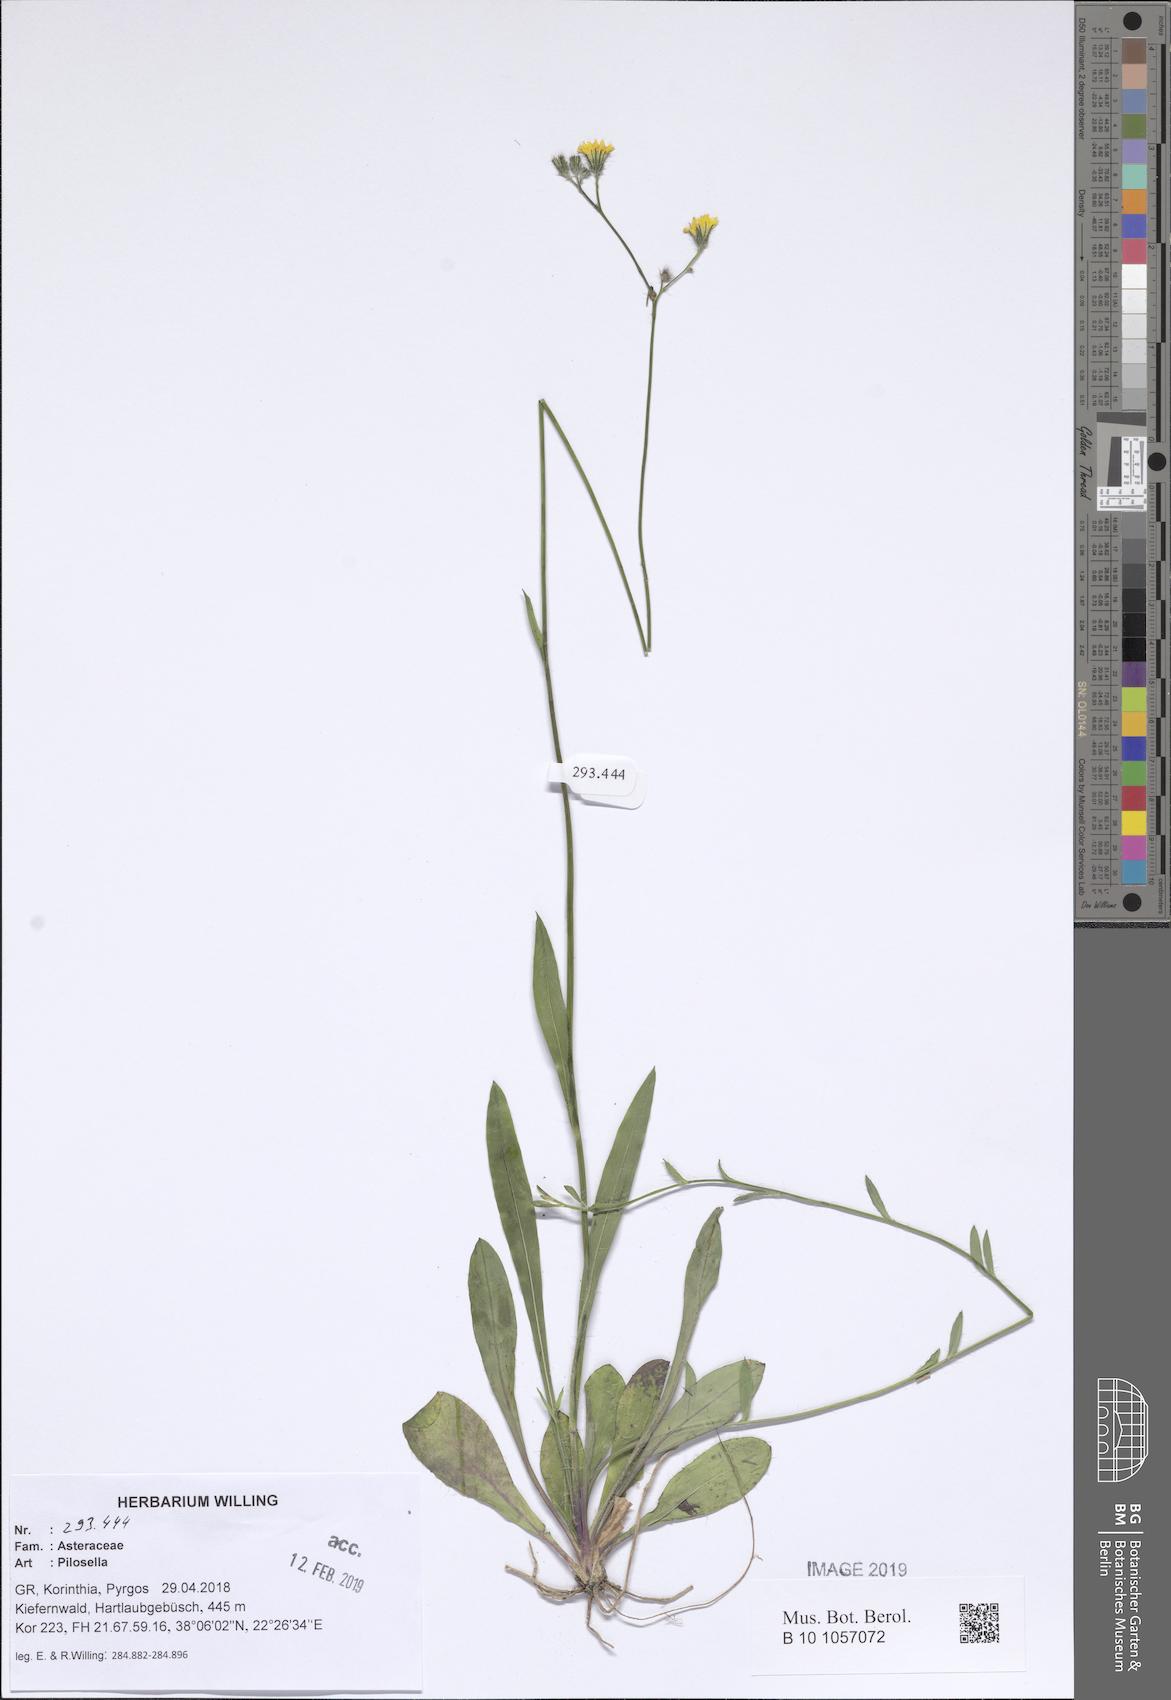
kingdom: Plantae
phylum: Tracheophyta
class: Magnoliopsida
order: Asterales
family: Asteraceae
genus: Pilosella
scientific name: Pilosella
